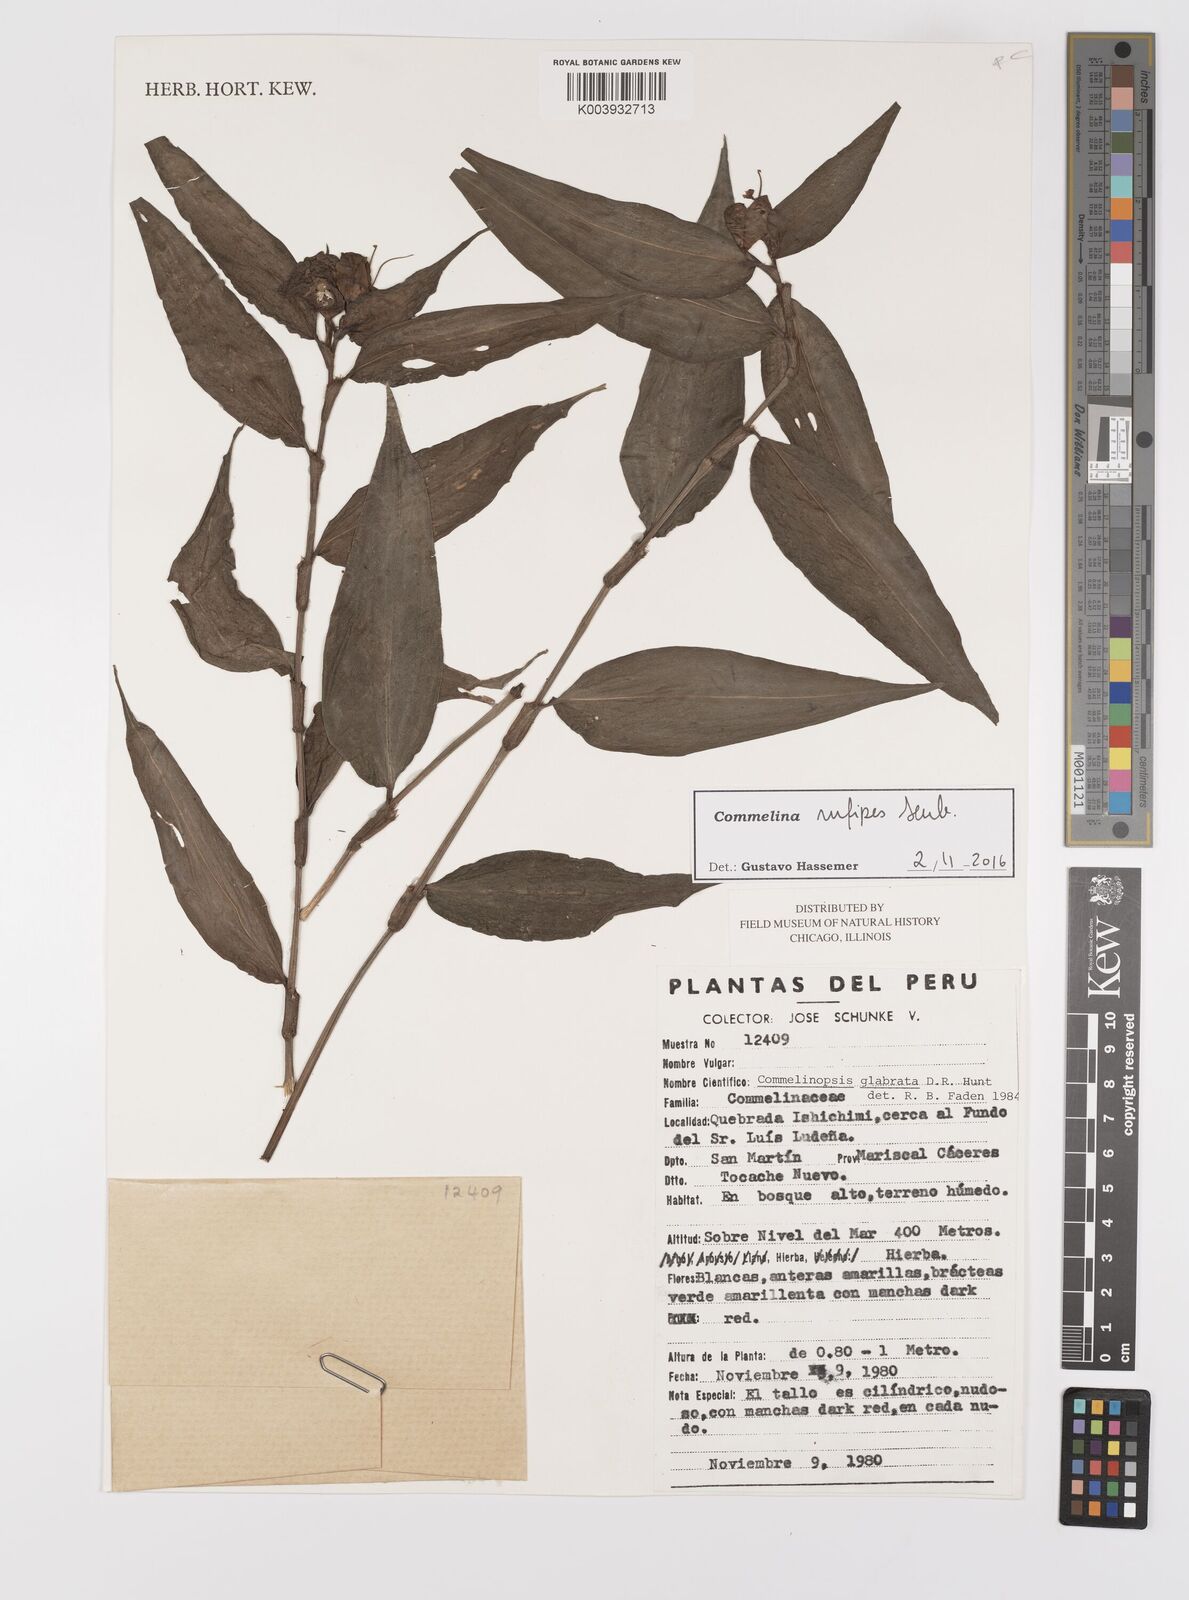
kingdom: Plantae
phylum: Tracheophyta
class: Liliopsida
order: Commelinales
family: Commelinaceae
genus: Commelina
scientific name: Commelina rufipes
